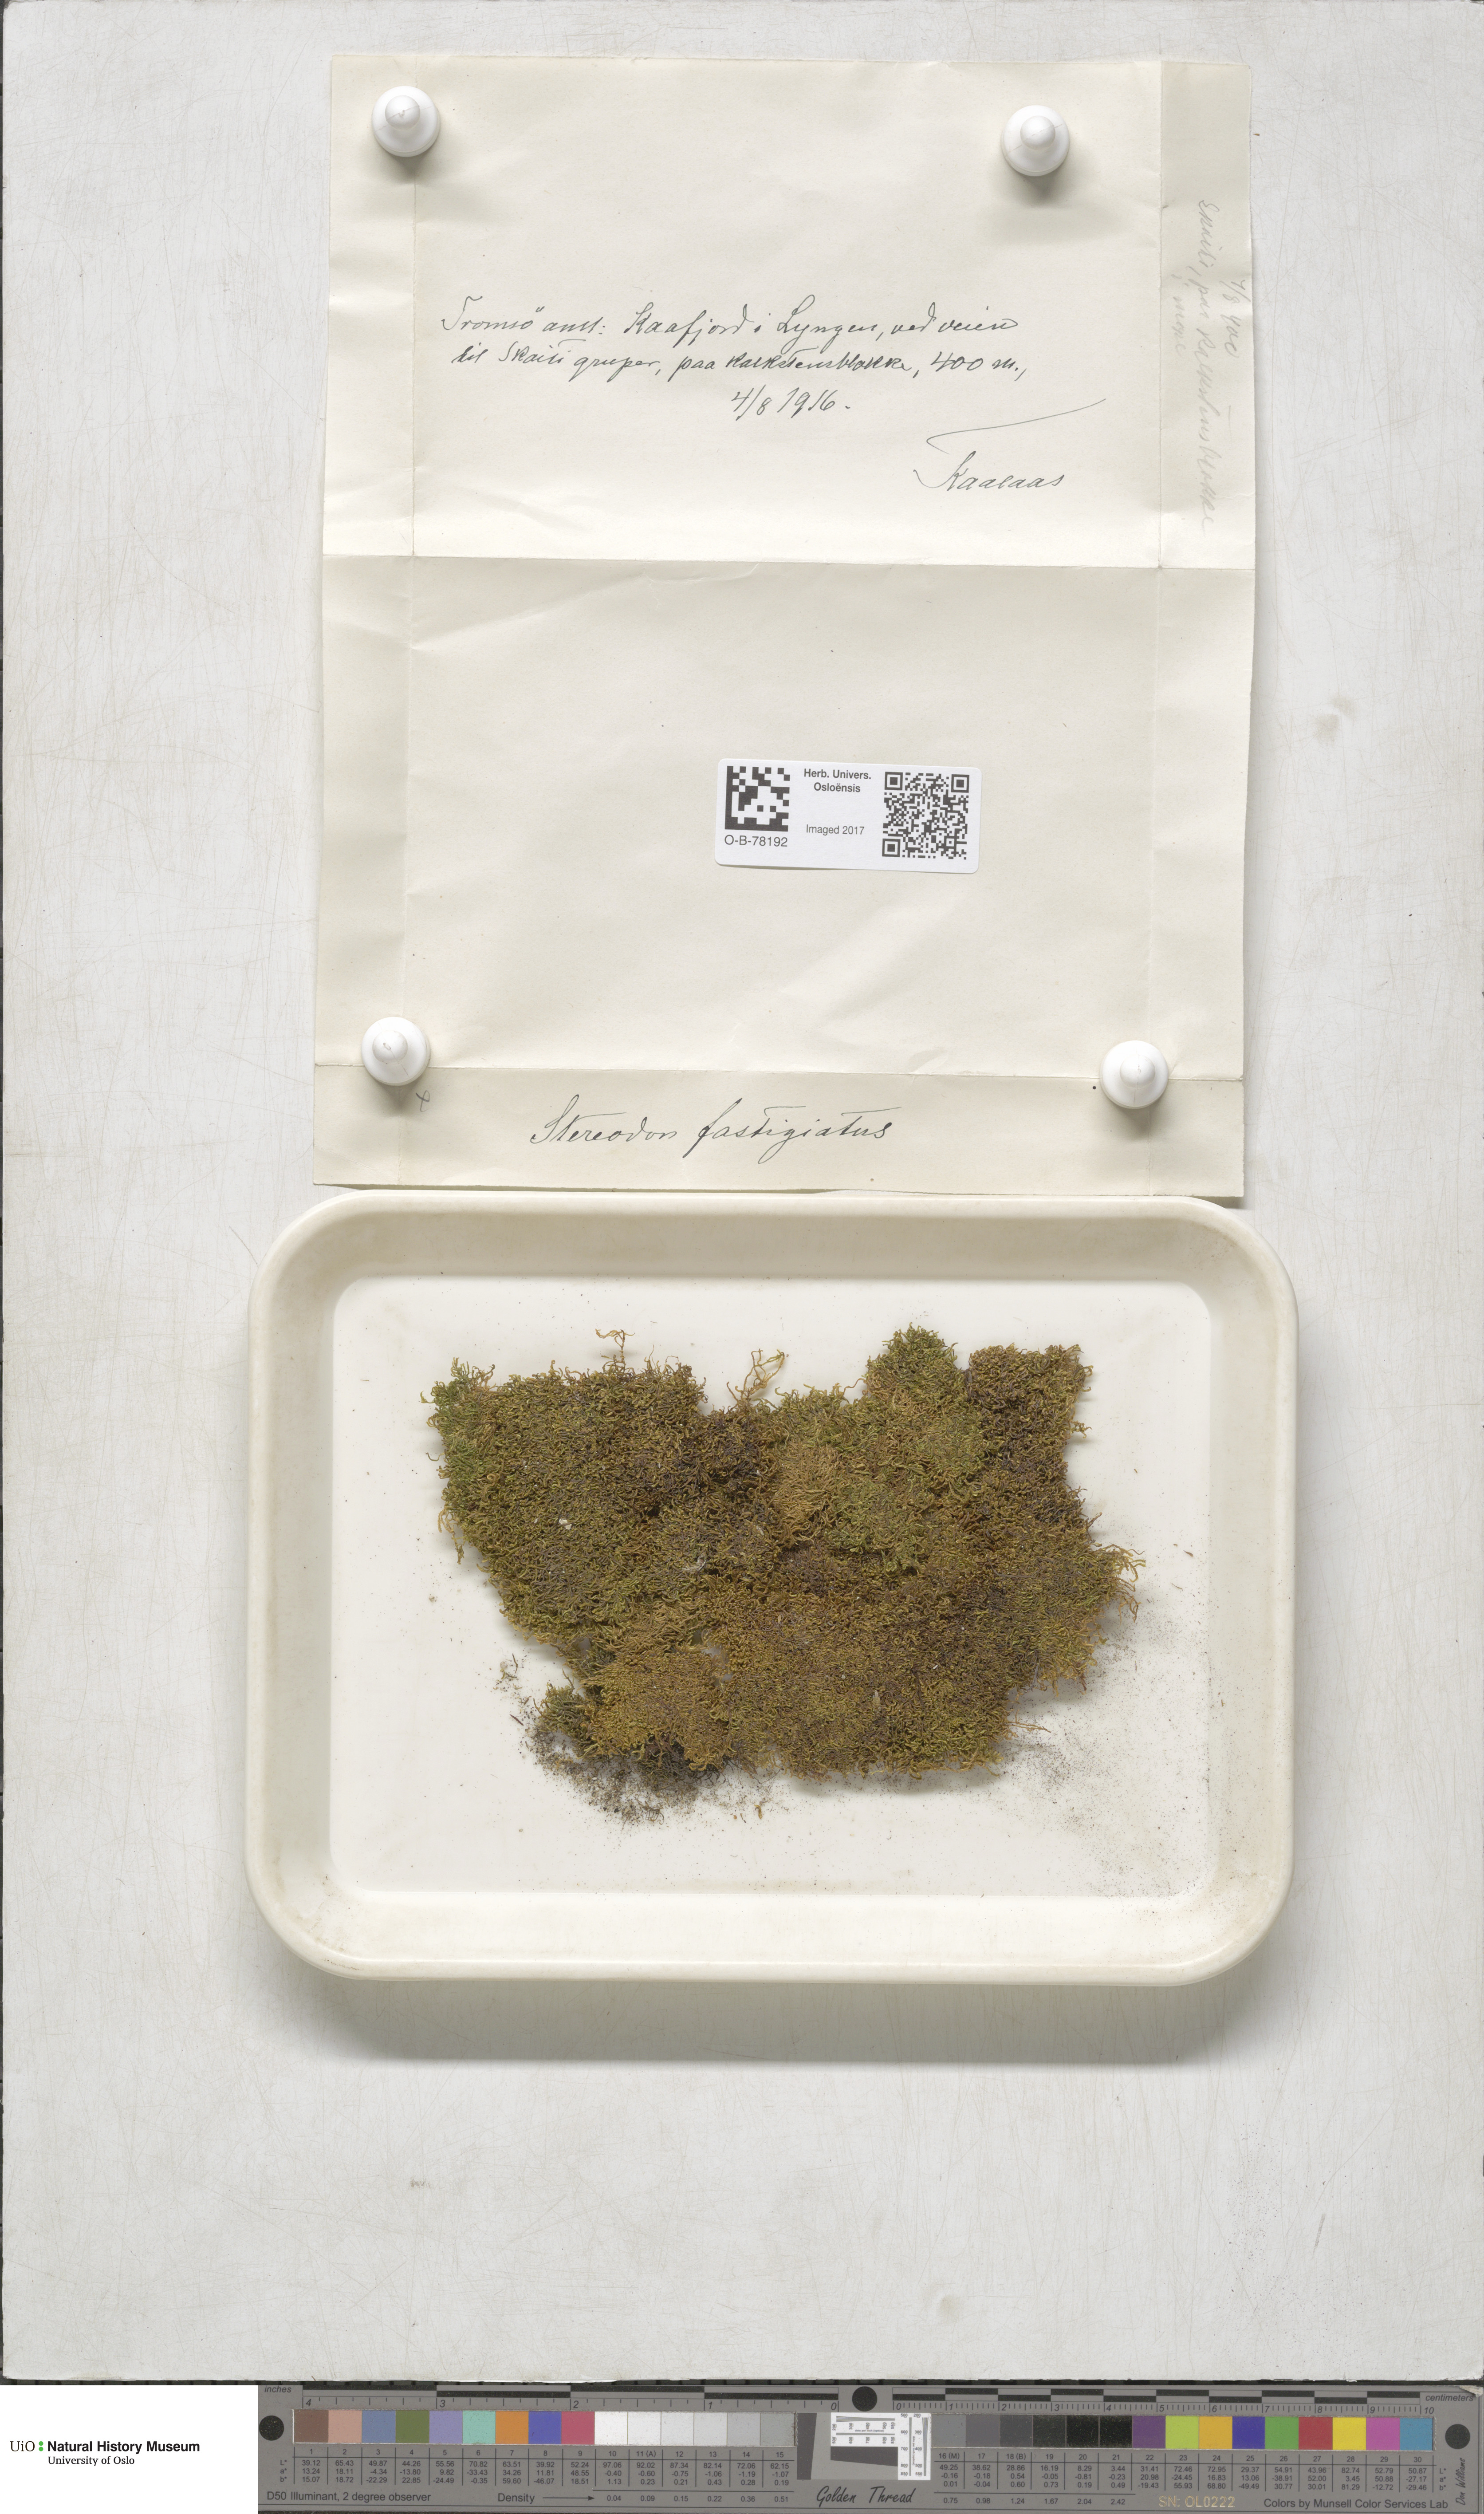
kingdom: Plantae
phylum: Bryophyta
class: Bryopsida
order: Hypnales
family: Amblystegiaceae
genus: Drepanium
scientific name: Drepanium fastigiatum
